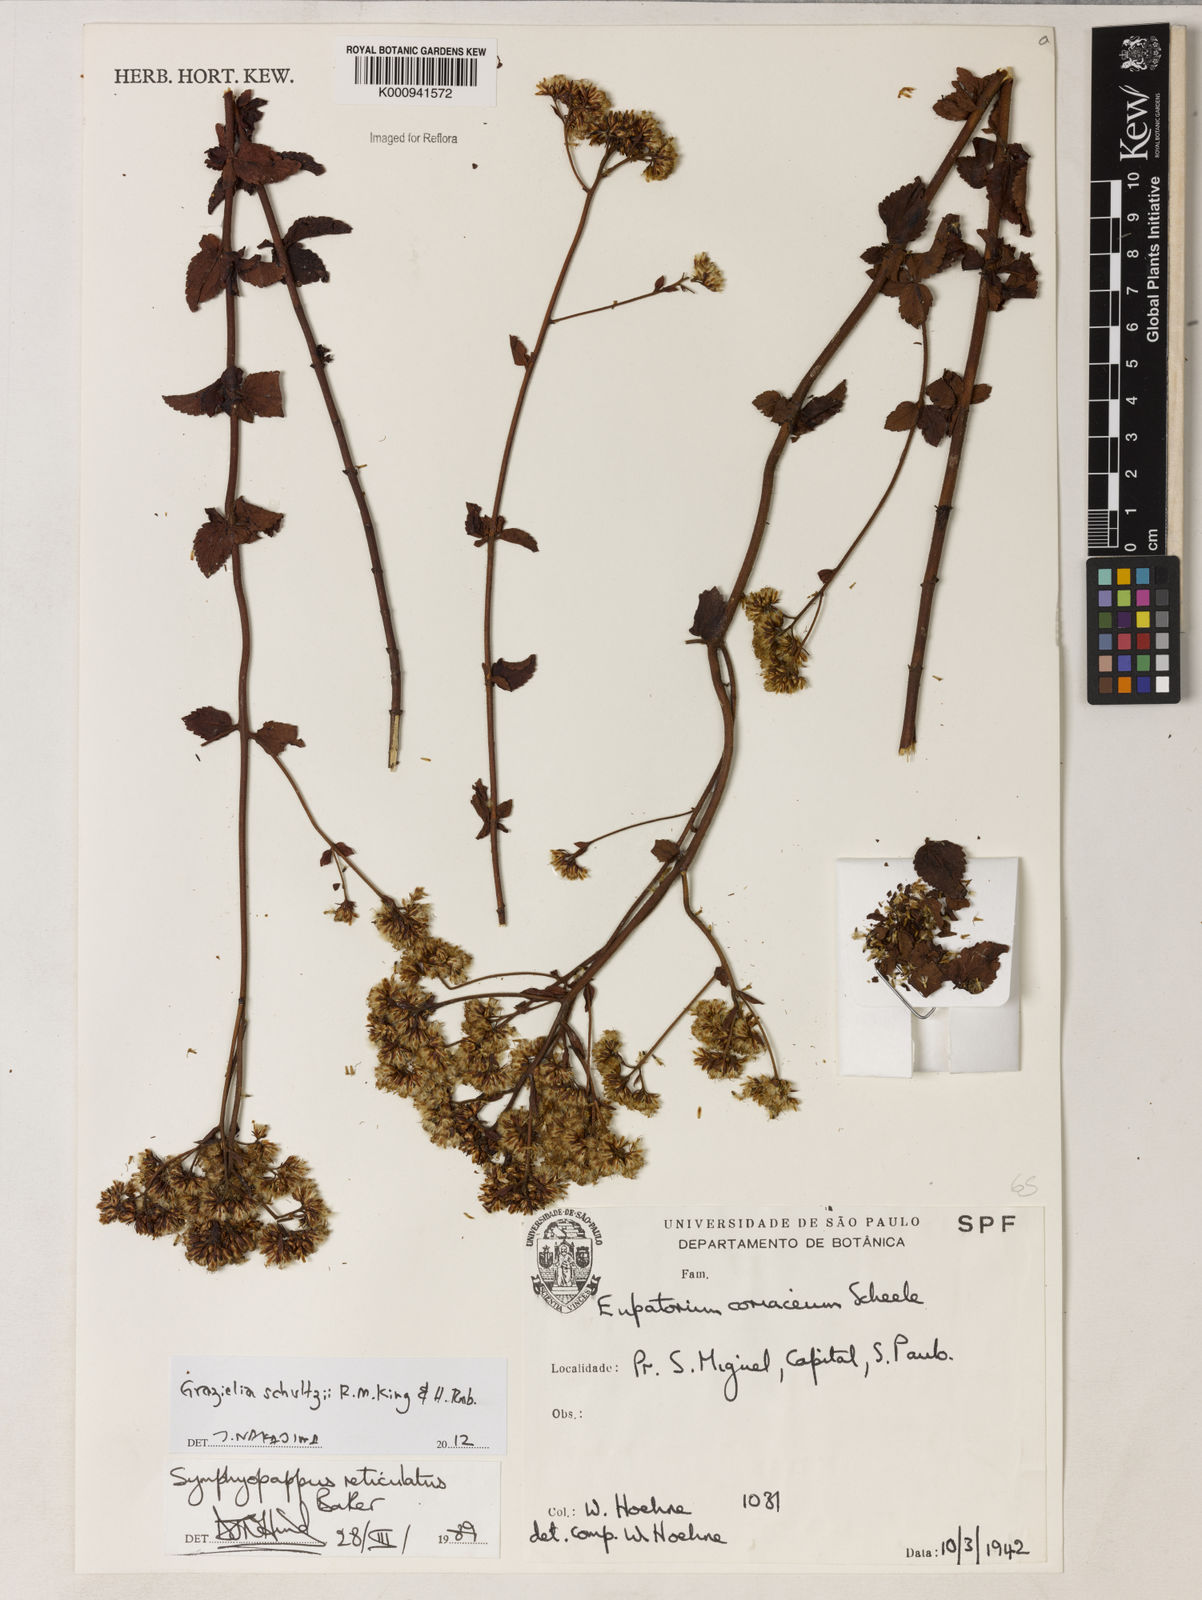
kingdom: Plantae
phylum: Tracheophyta
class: Magnoliopsida
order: Asterales
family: Asteraceae
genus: Grazielia
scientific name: Grazielia
